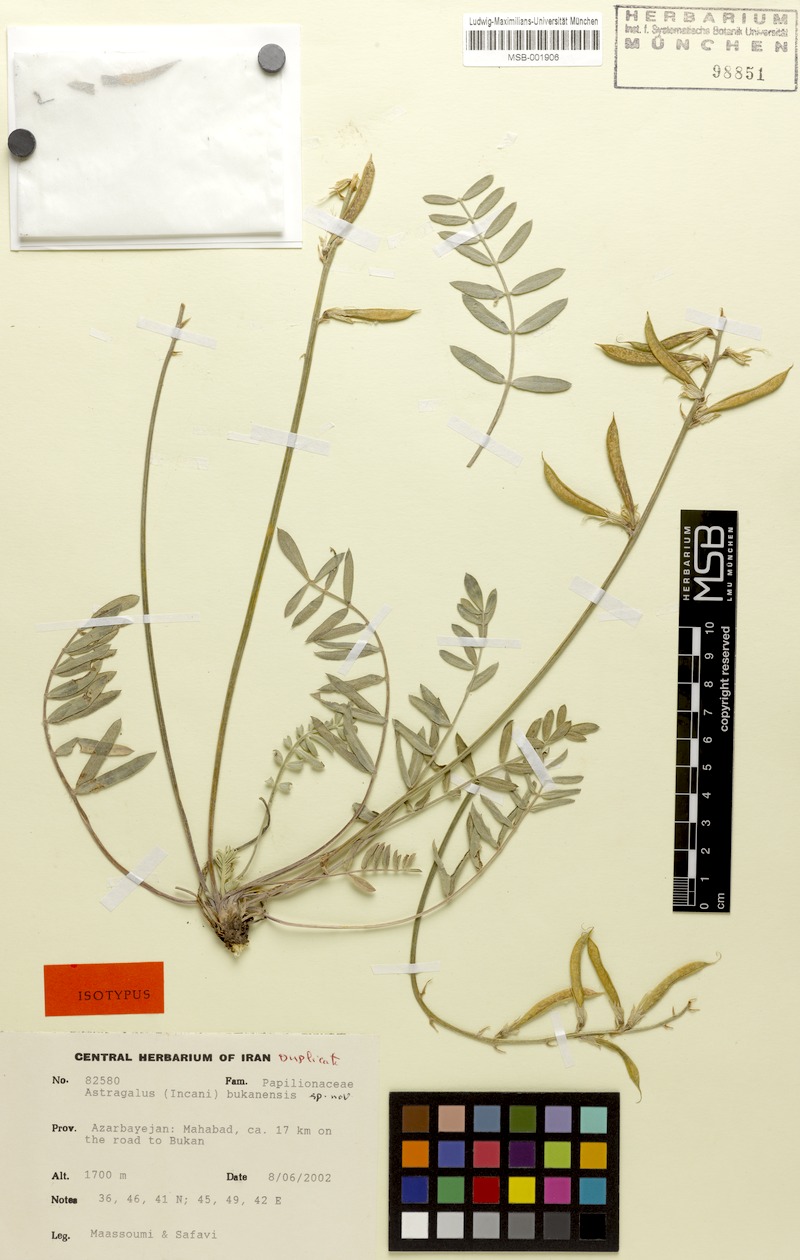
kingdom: Plantae
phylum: Tracheophyta
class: Magnoliopsida
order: Fabales
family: Fabaceae
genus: Astragalus
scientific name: Astragalus bukanensis
